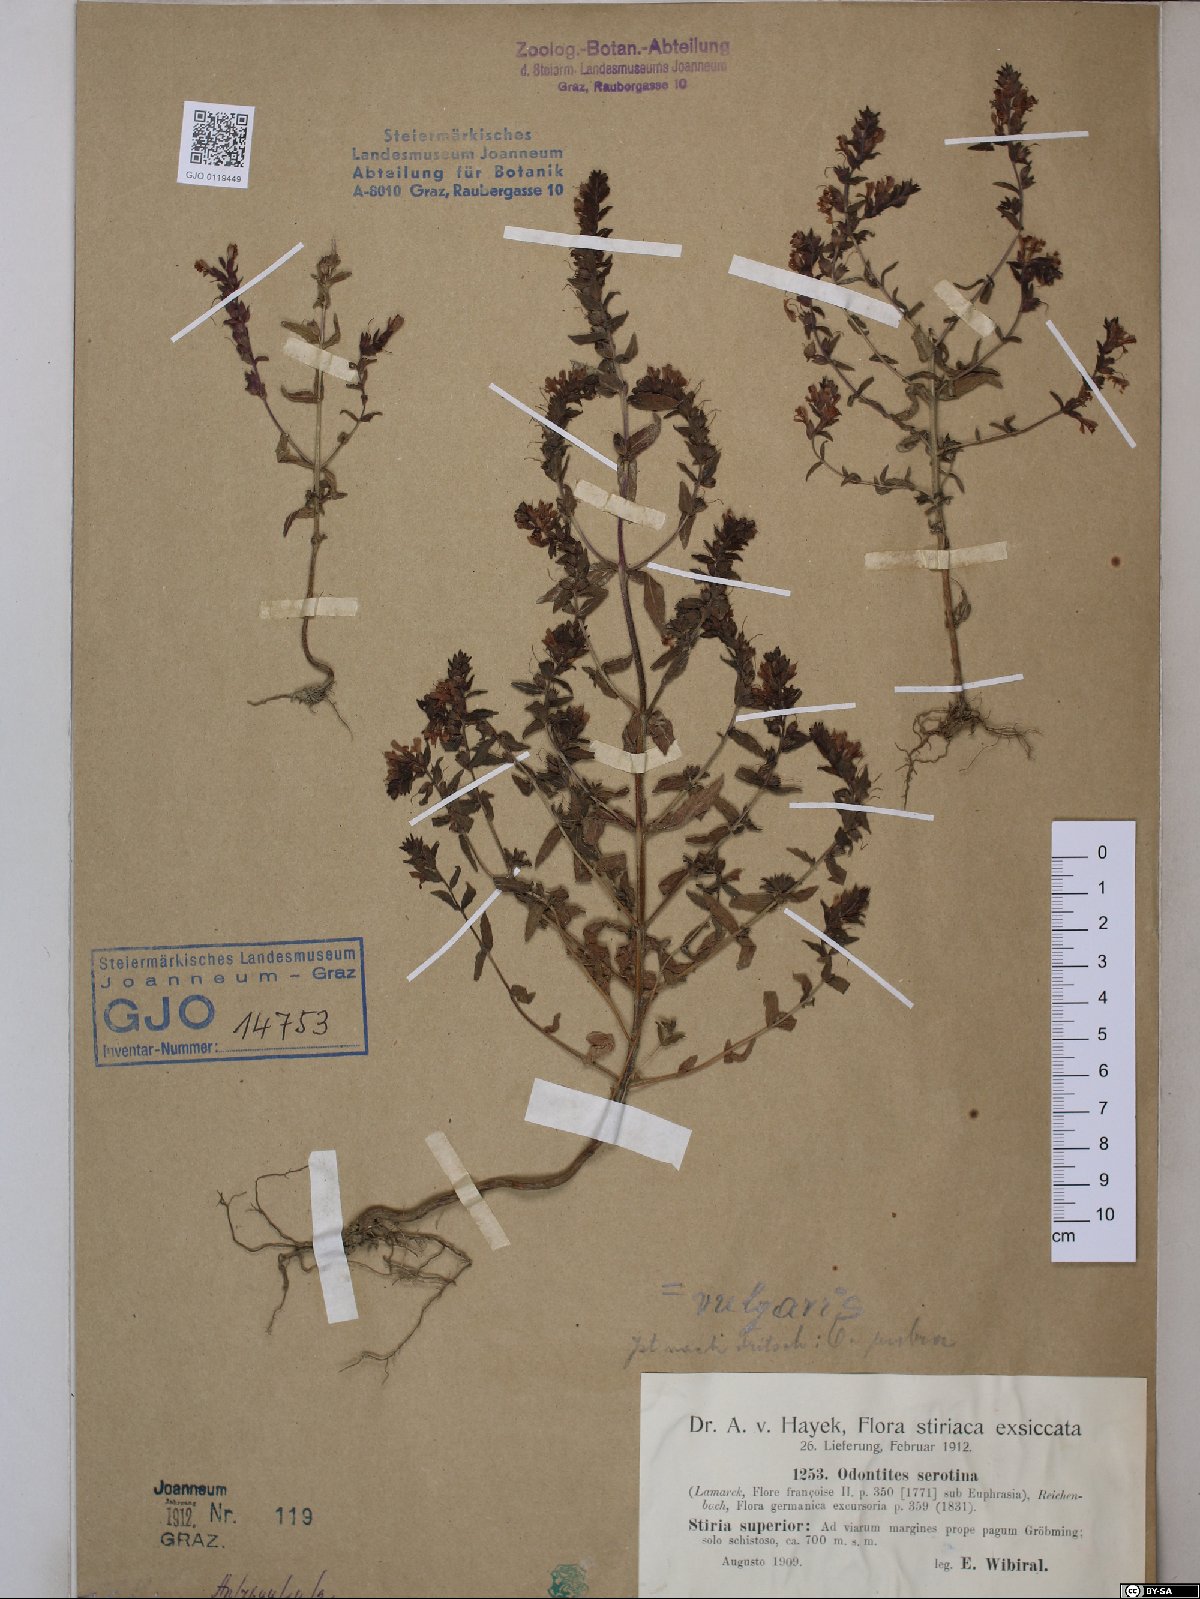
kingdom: Plantae
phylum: Tracheophyta
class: Magnoliopsida
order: Lamiales
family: Orobanchaceae
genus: Odontites
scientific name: Odontites vulgaris
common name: Broomrape
